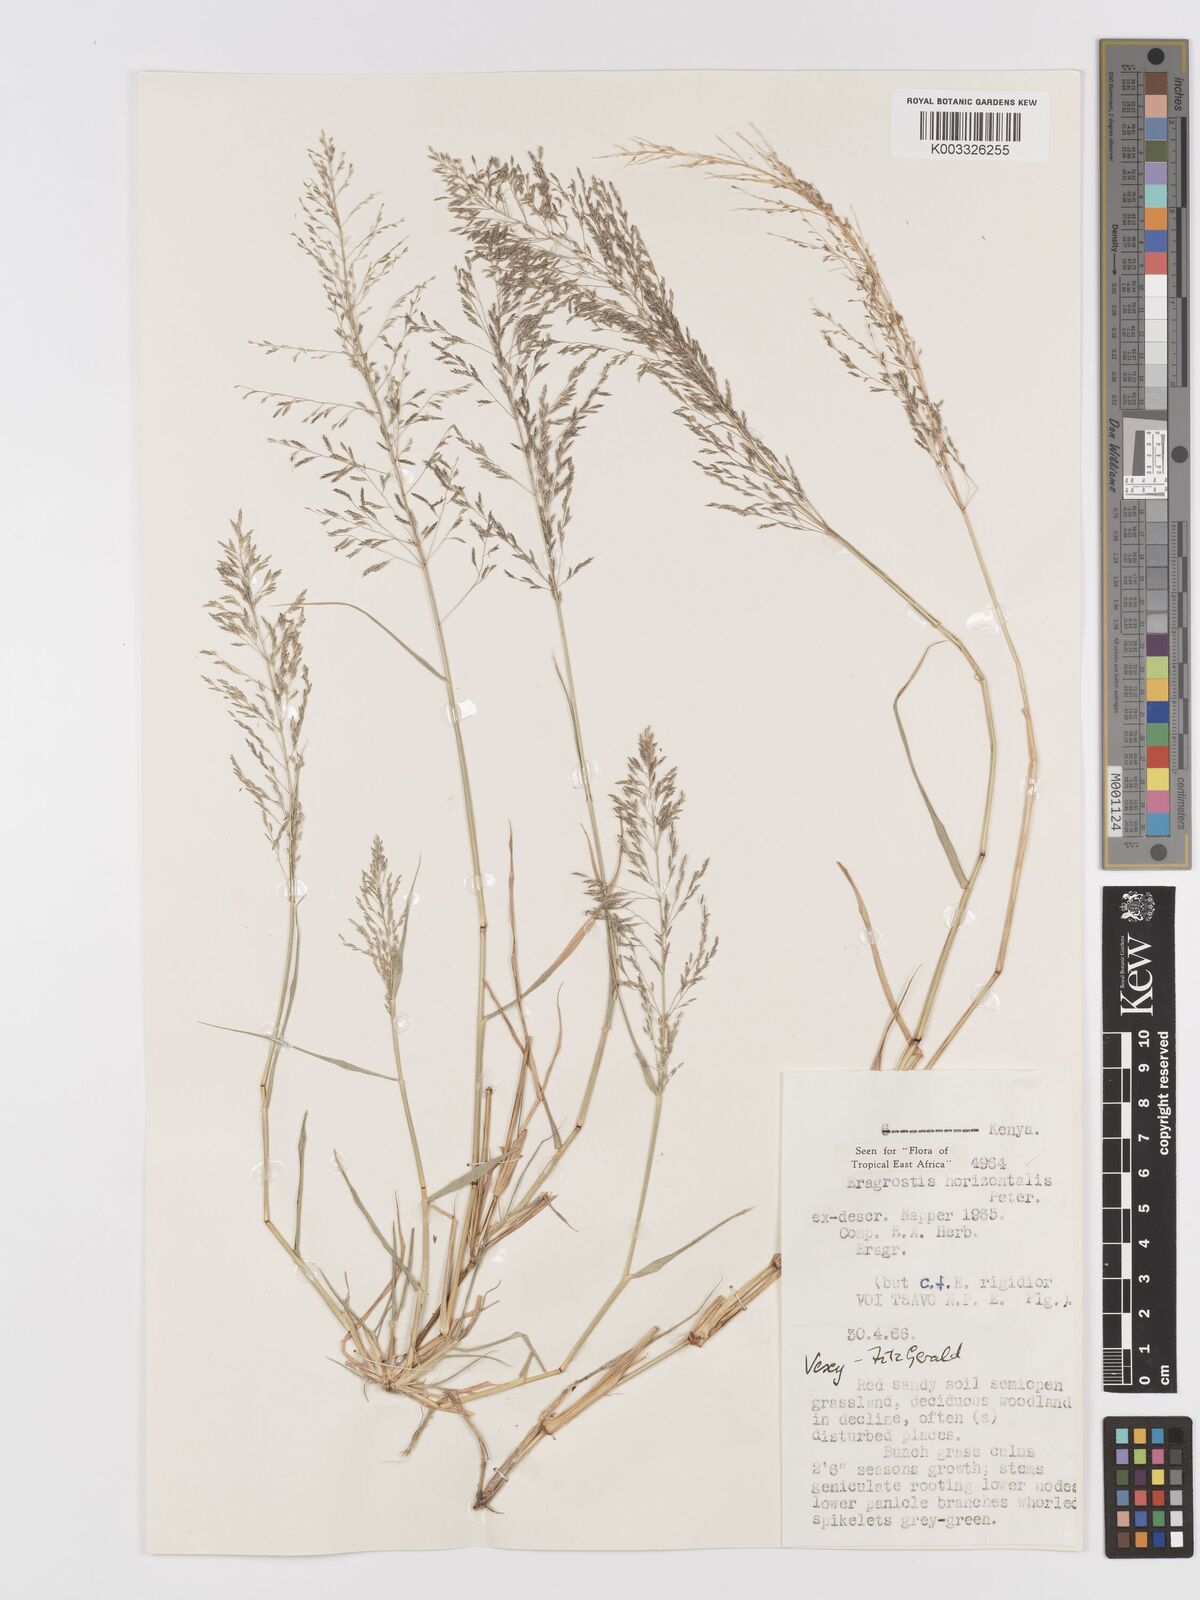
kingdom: Plantae
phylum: Tracheophyta
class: Liliopsida
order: Poales
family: Poaceae
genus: Eragrostis
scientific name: Eragrostis cylindriflora
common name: Cylinderflower lovegrass
